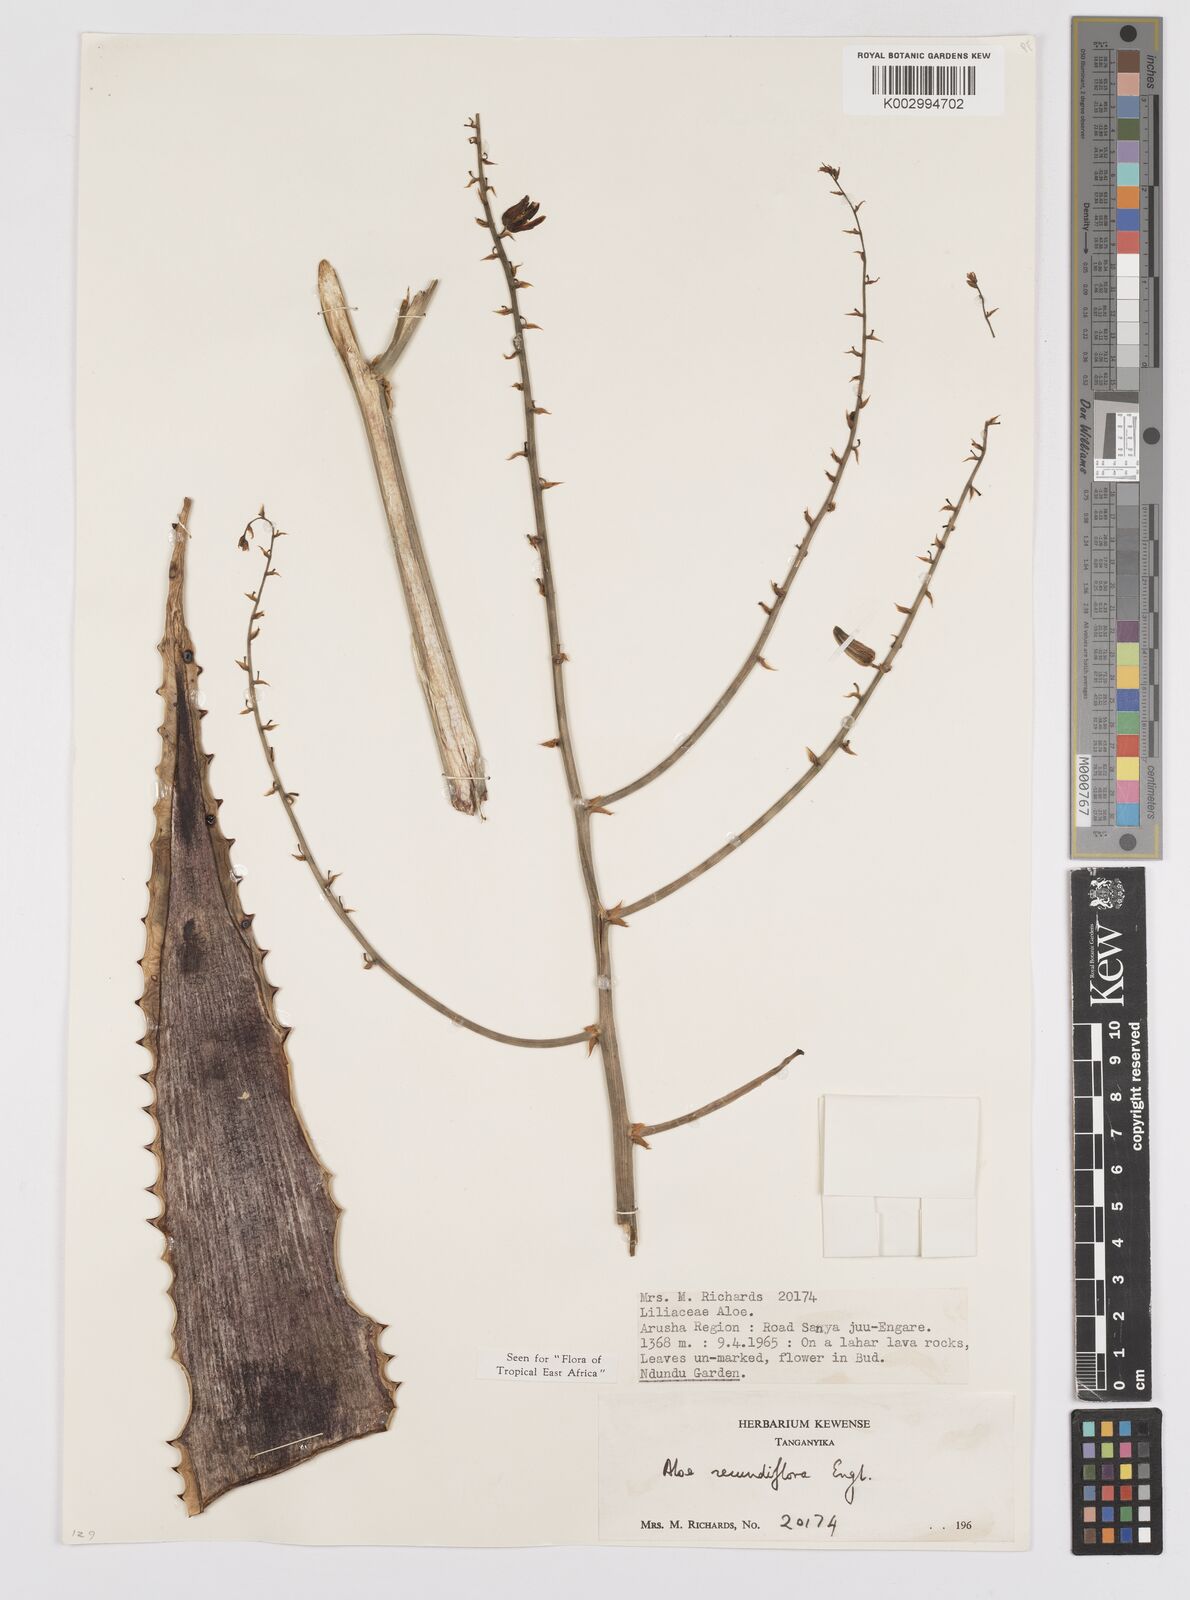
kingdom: Plantae
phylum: Tracheophyta
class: Liliopsida
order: Asparagales
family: Asphodelaceae
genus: Aloe
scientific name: Aloe secundiflora
